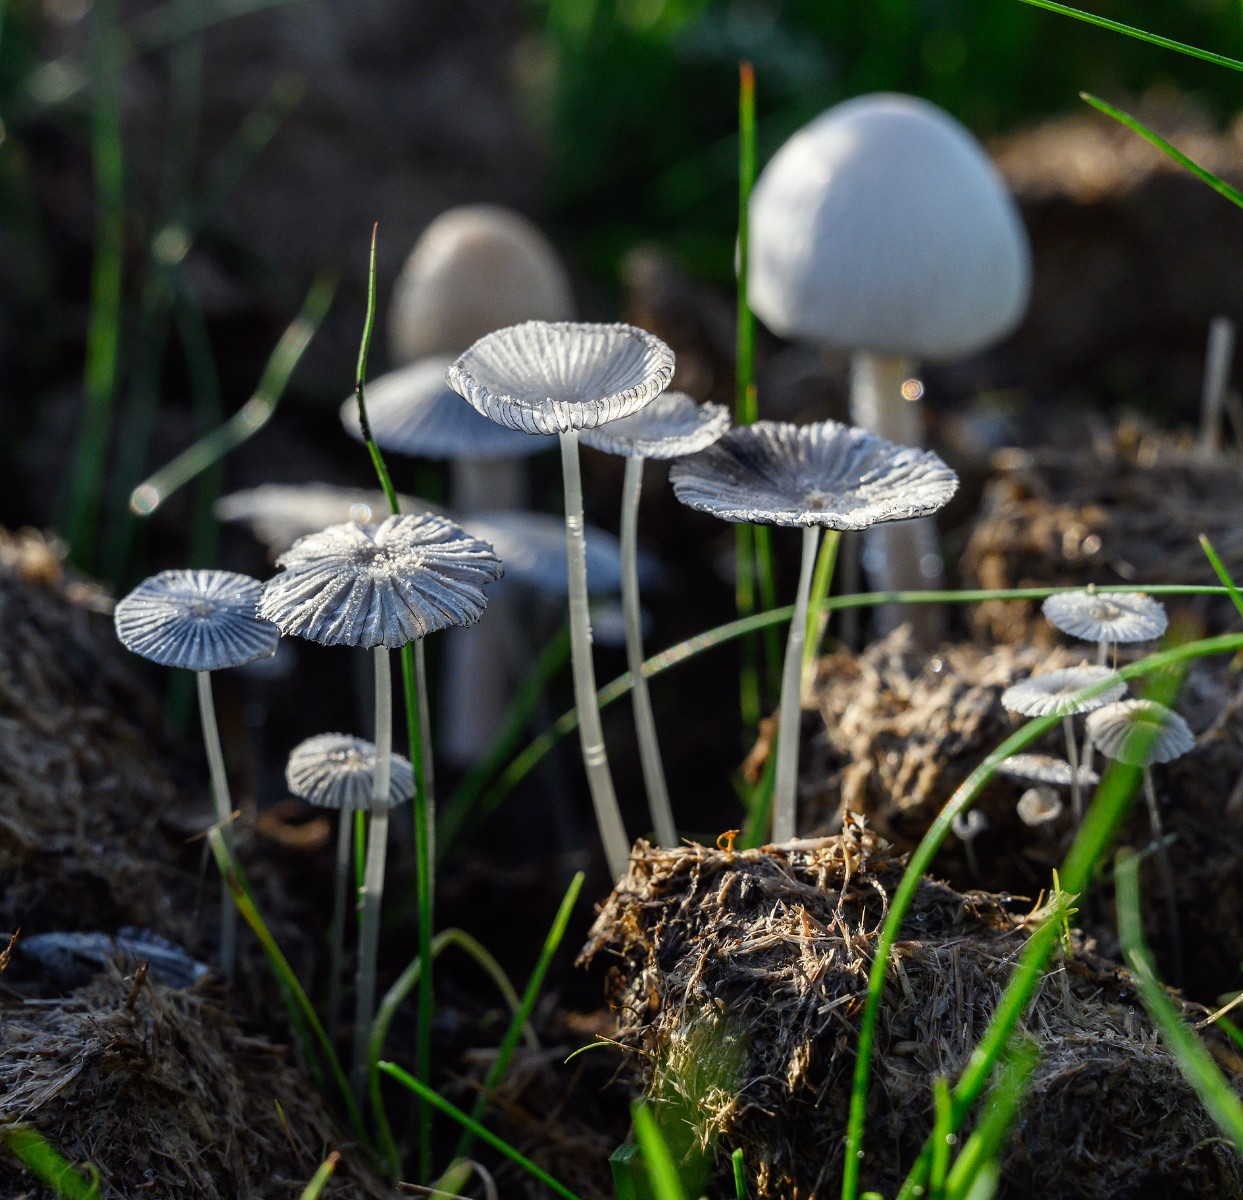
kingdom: Fungi
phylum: Basidiomycota
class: Agaricomycetes
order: Agaricales
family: Psathyrellaceae
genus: Narcissea
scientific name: Narcissea ephemeroides
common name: ring-blækhat
